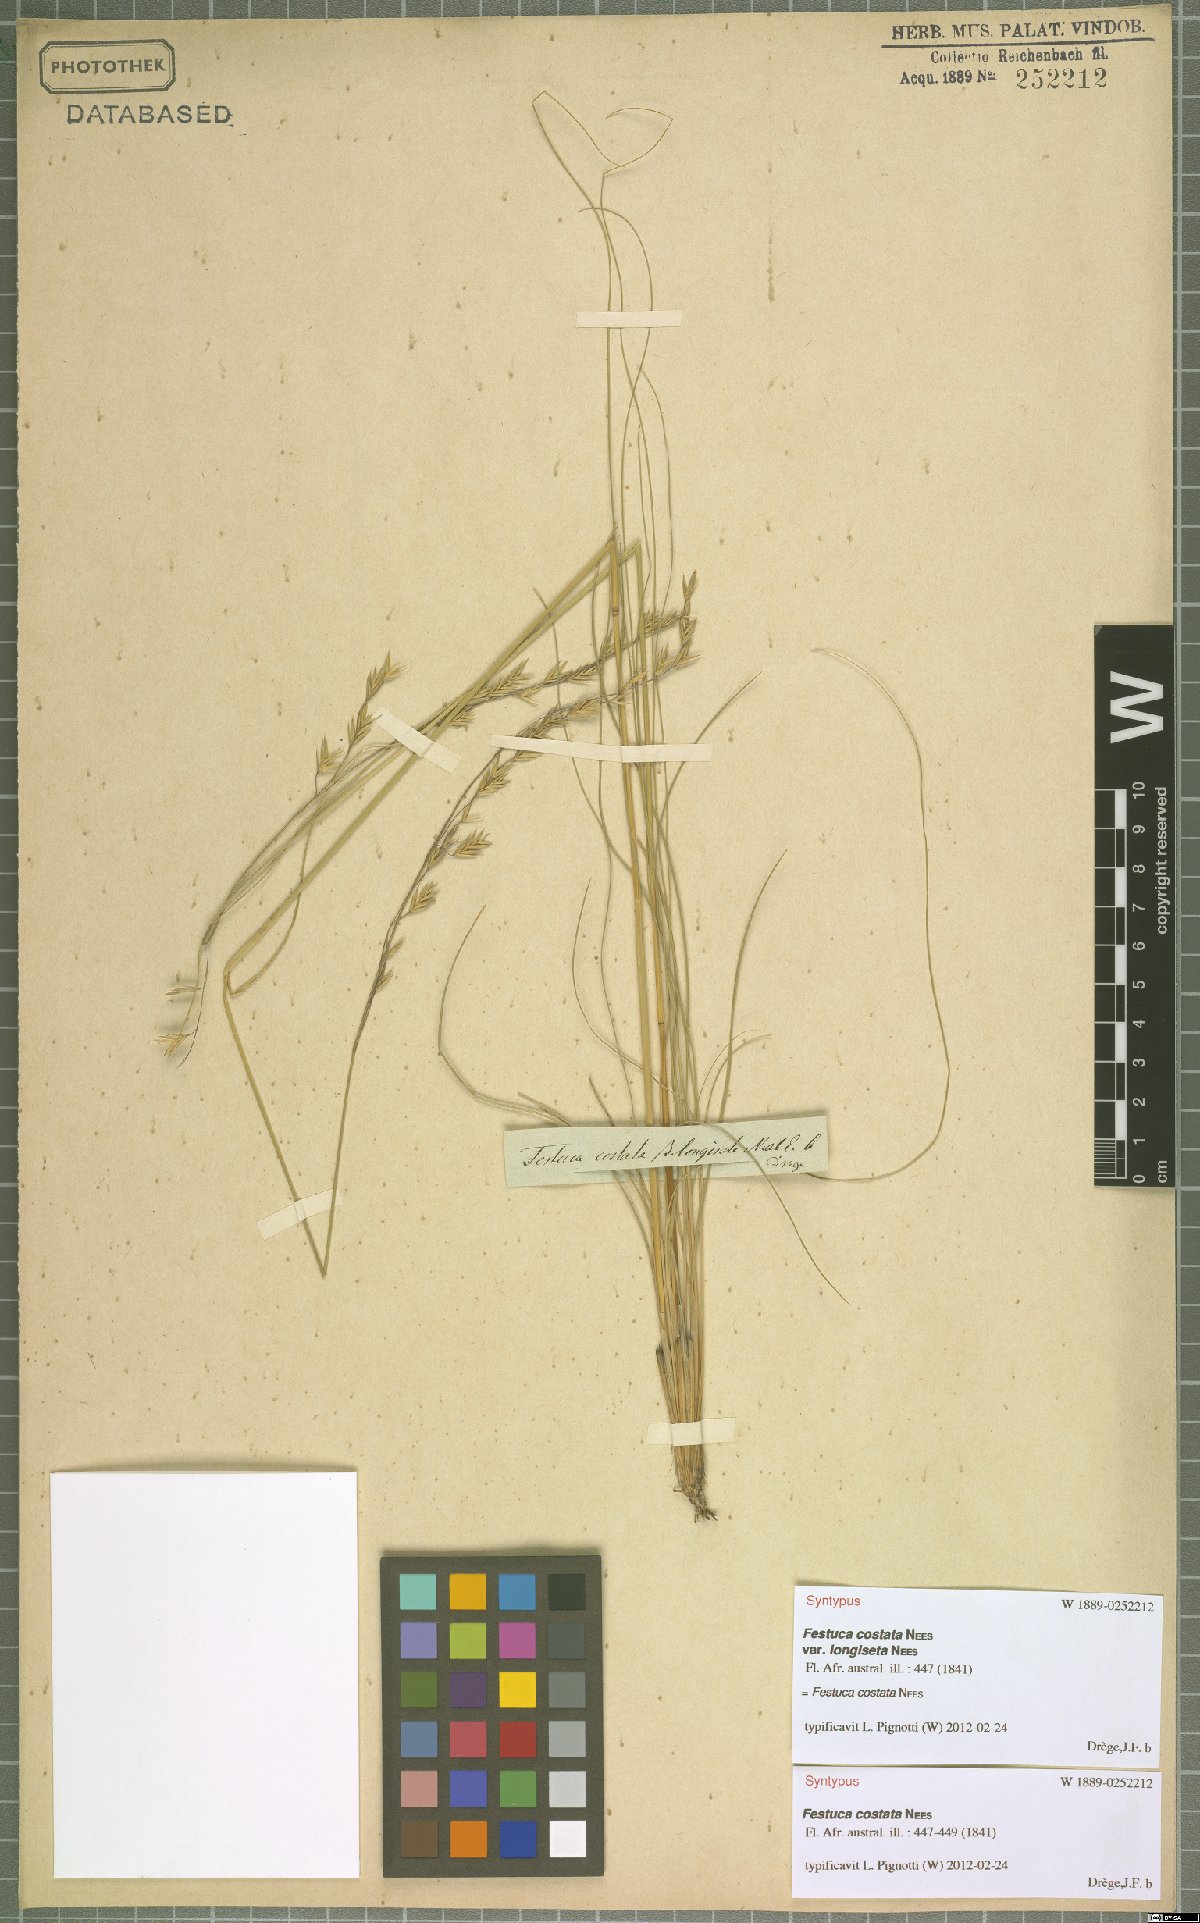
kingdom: Plantae
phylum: Tracheophyta
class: Liliopsida
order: Poales
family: Poaceae
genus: Festuca
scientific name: Festuca costata
